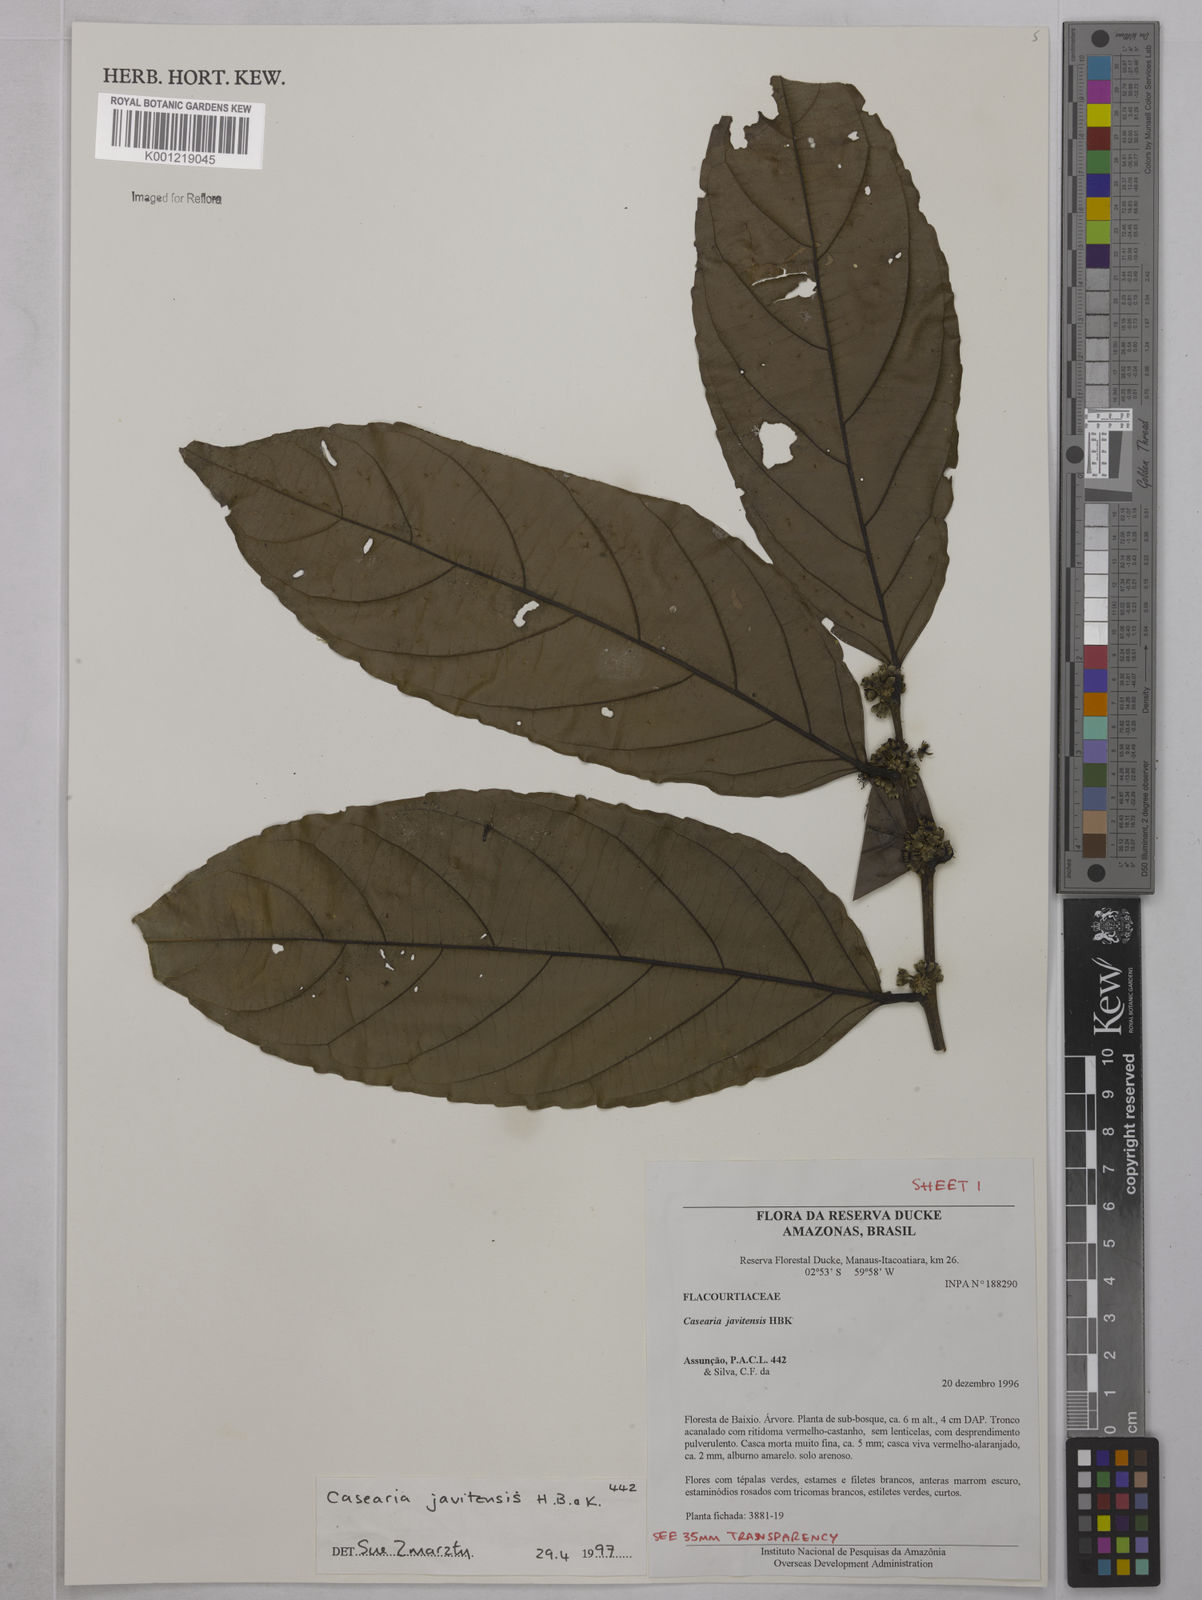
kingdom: Plantae
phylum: Tracheophyta
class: Magnoliopsida
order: Malpighiales
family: Salicaceae
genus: Piparea
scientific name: Piparea multiflora
